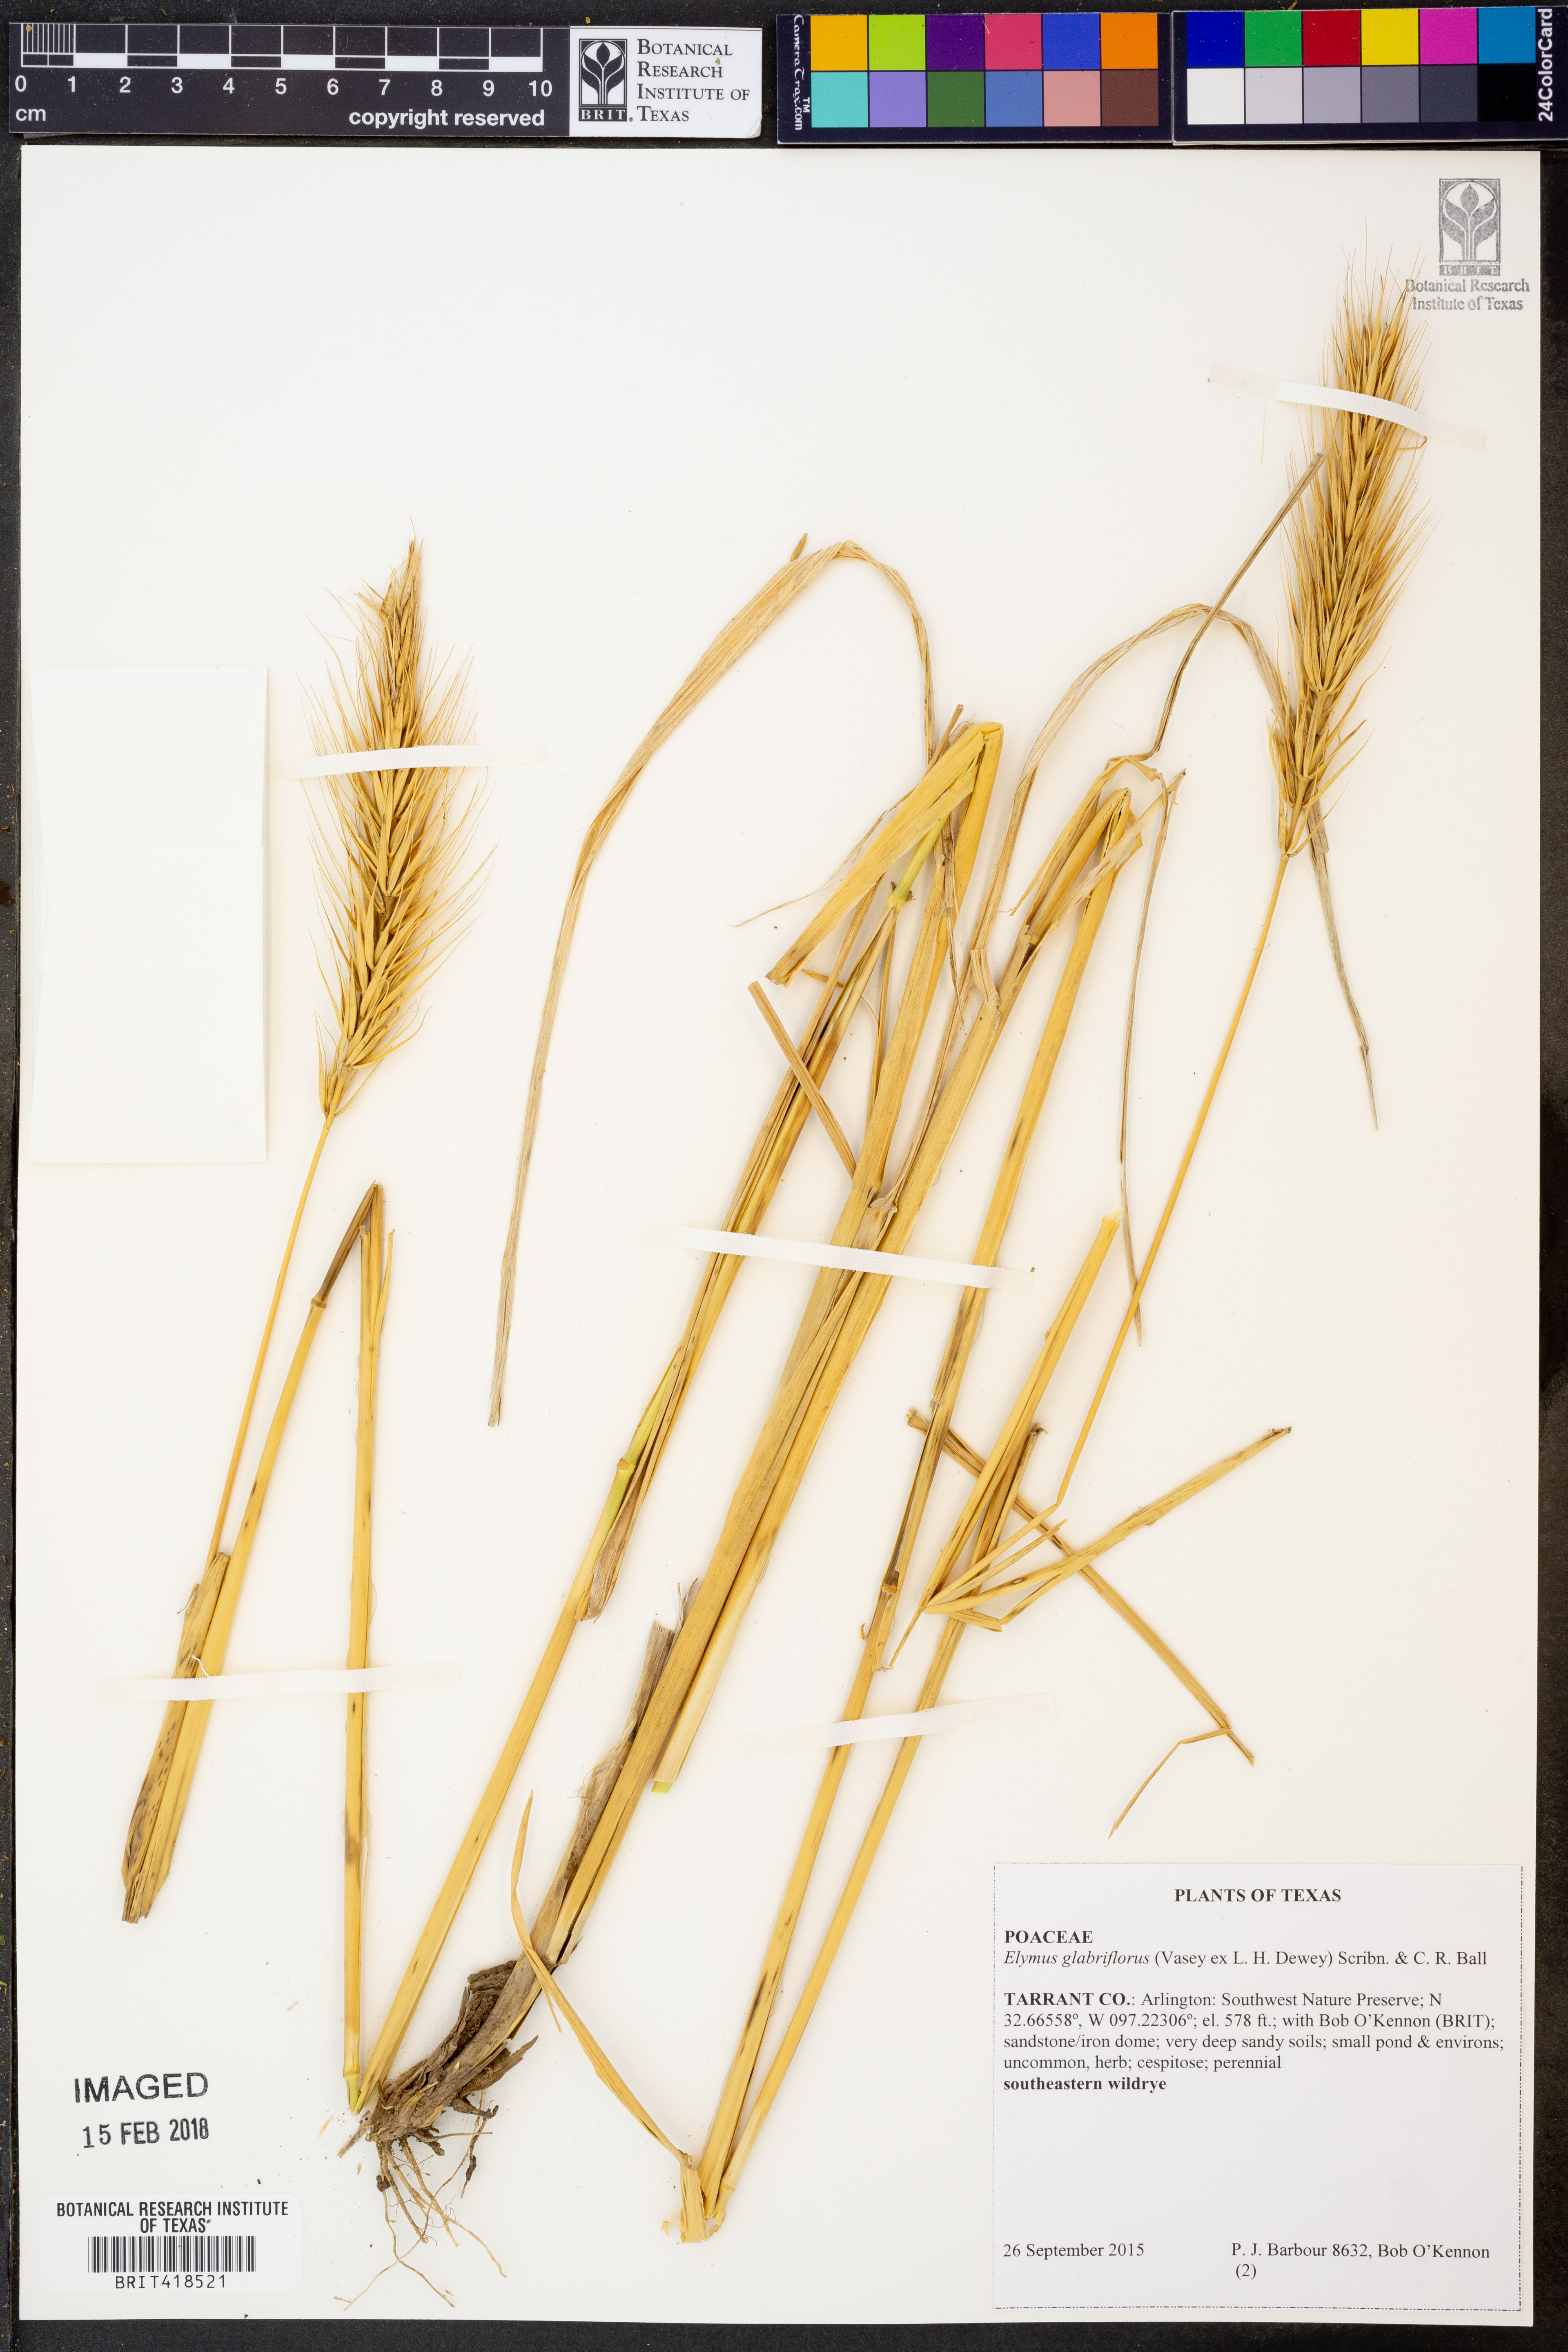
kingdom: Plantae
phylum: Tracheophyta
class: Liliopsida
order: Poales
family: Poaceae
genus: Elymus
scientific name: Elymus virginicus
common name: Common eastern wildrye
